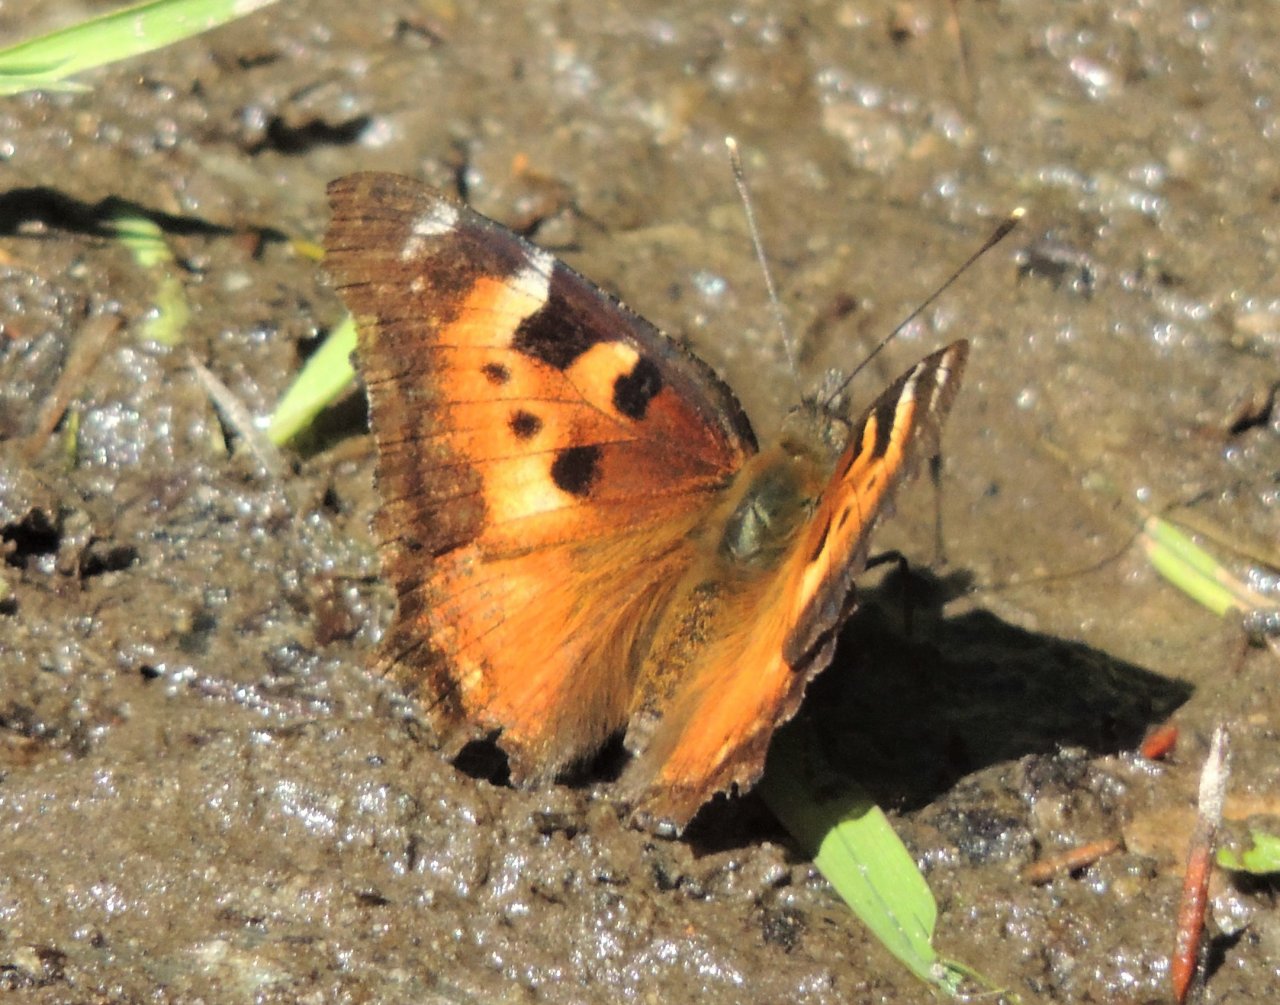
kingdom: Animalia
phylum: Arthropoda
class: Insecta
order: Lepidoptera
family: Nymphalidae
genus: Nymphalis
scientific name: Nymphalis californica
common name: California Tortoiseshell
